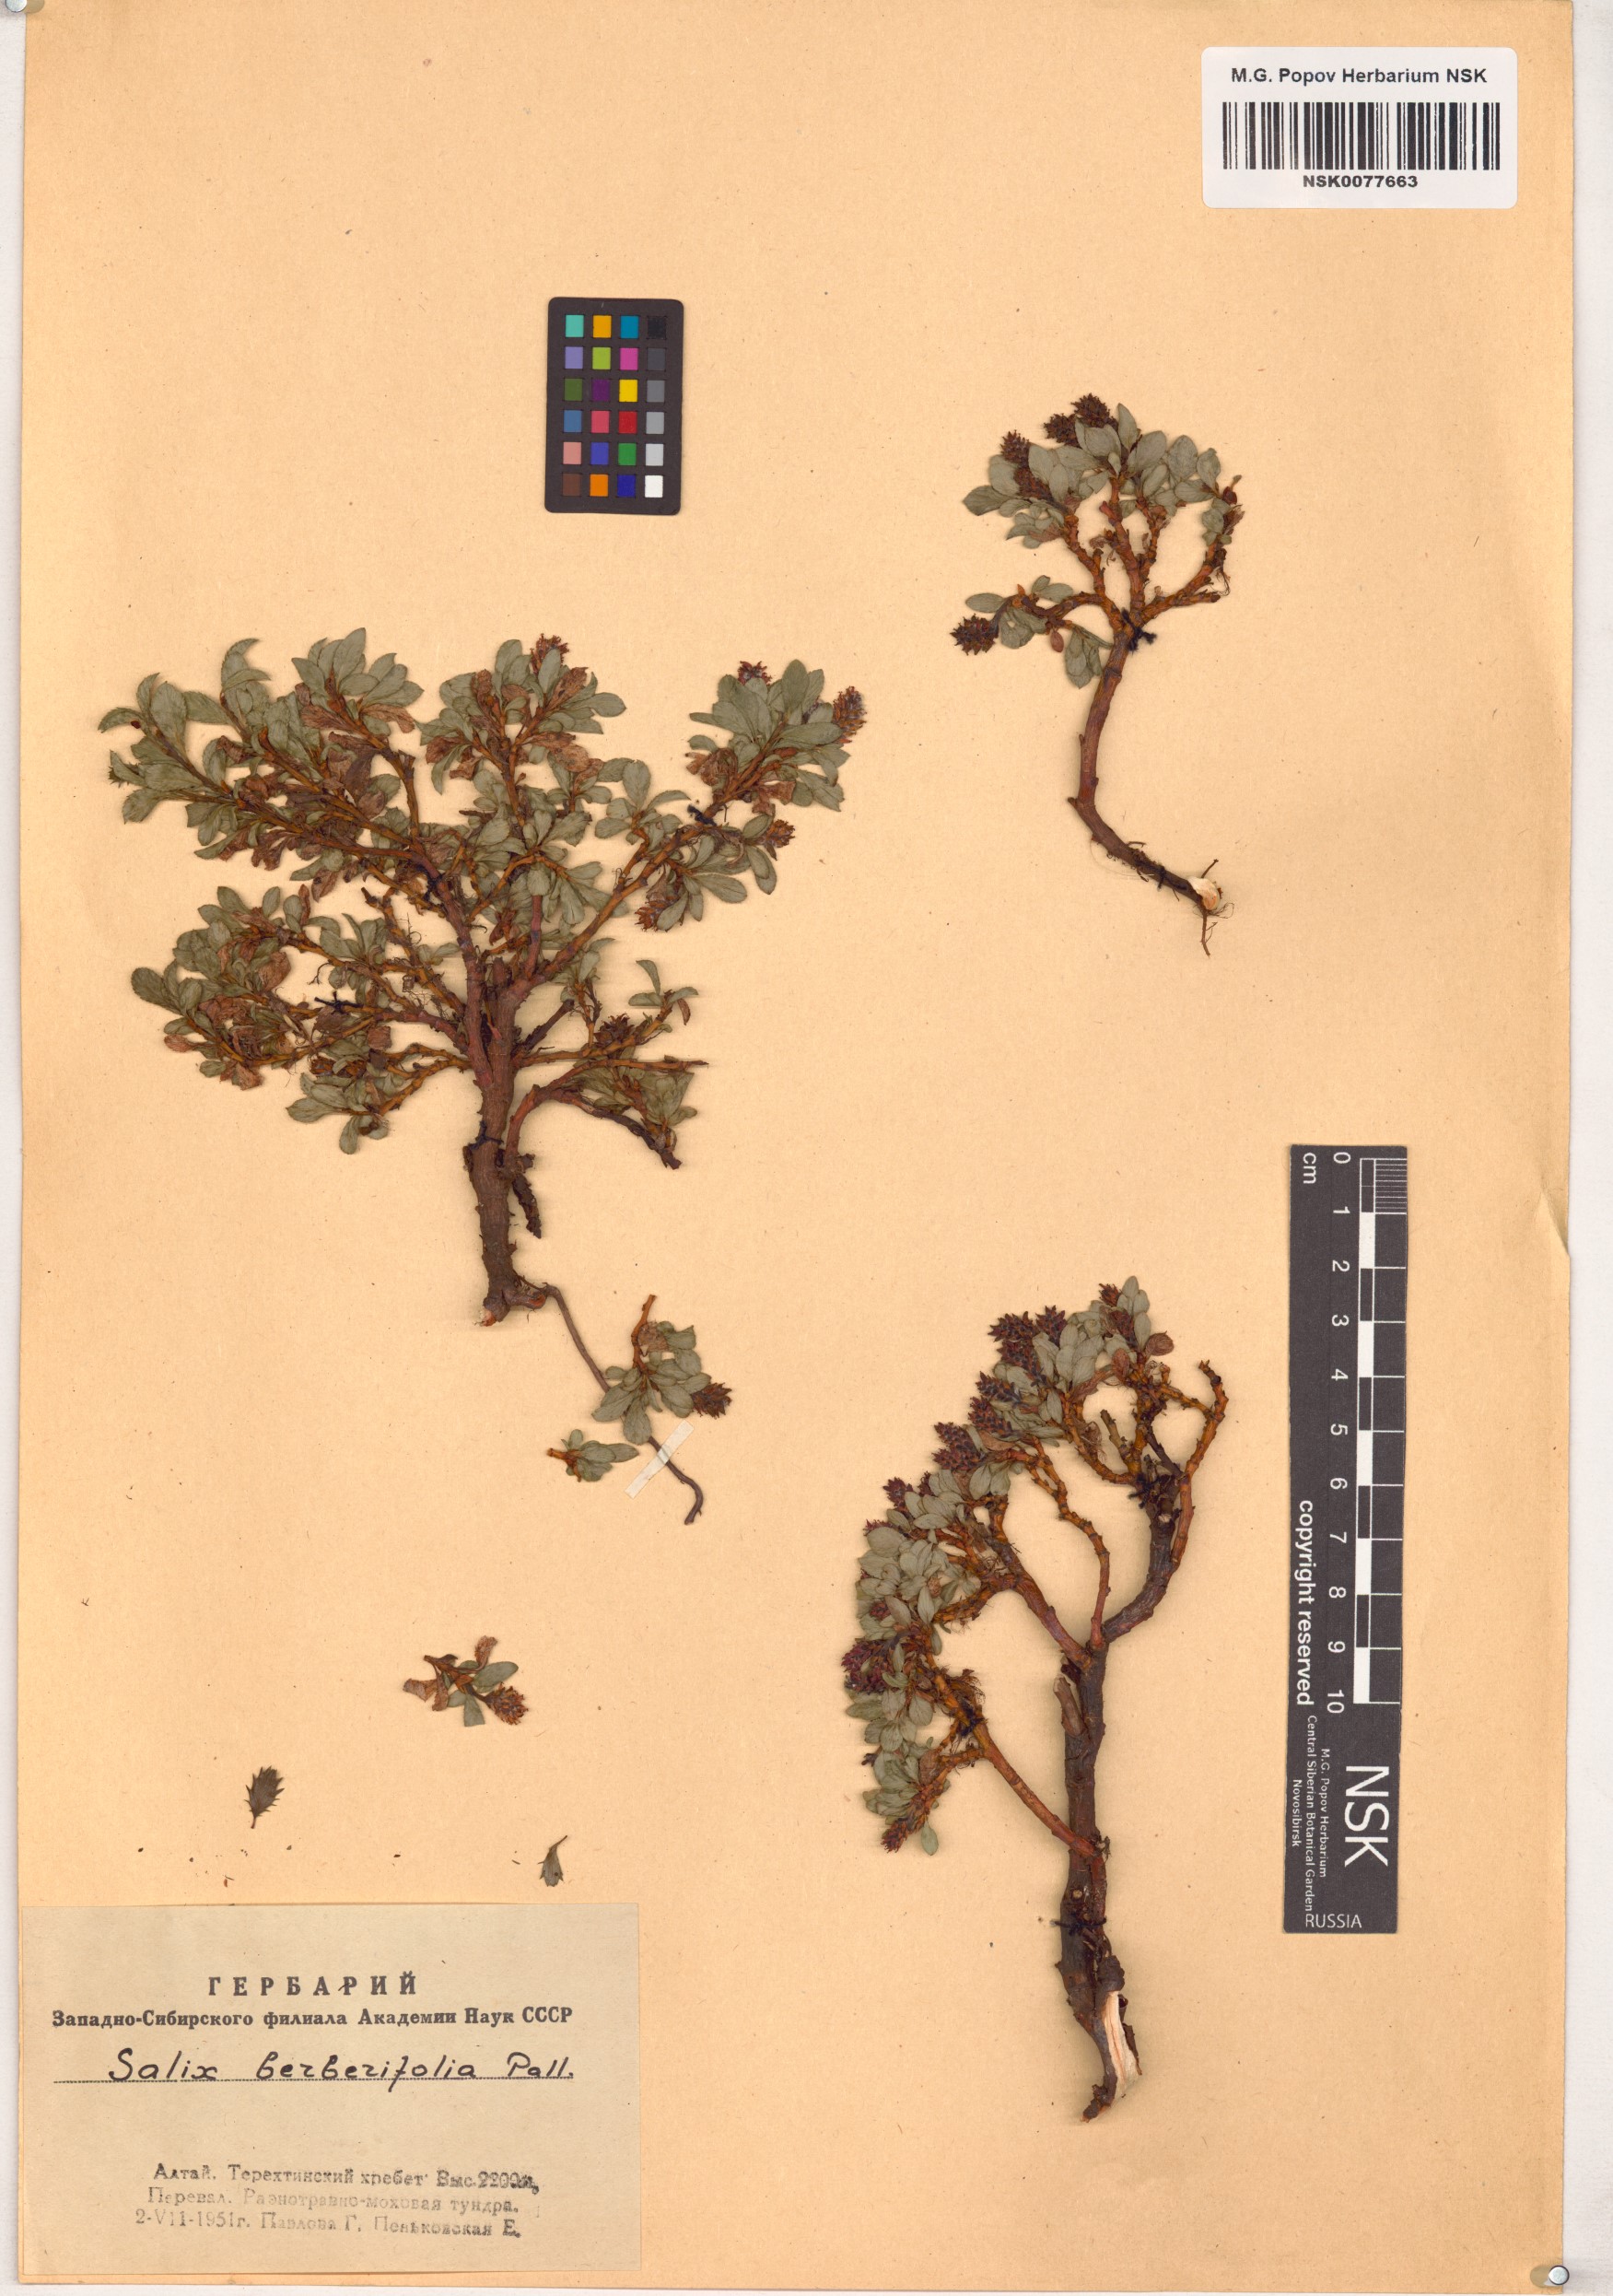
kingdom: Plantae
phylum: Tracheophyta
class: Magnoliopsida
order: Malpighiales
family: Salicaceae
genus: Salix
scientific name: Salix berberifolia
